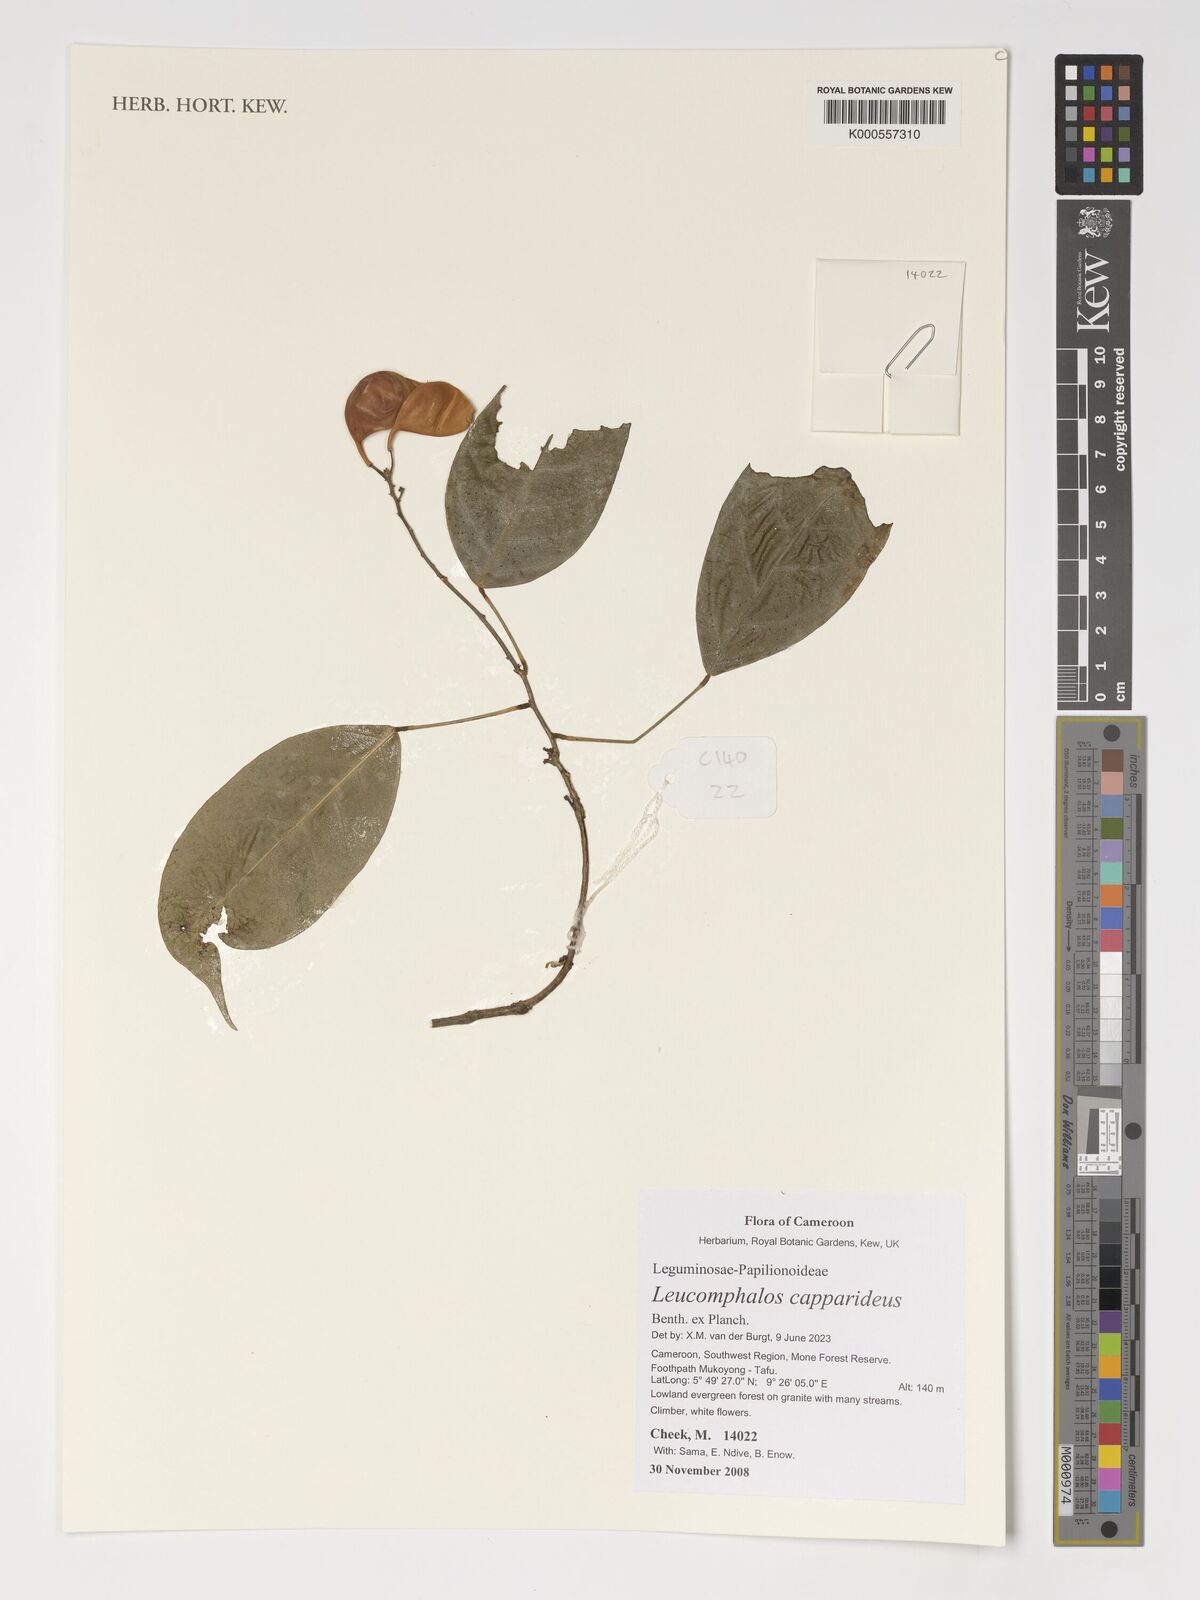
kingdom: Plantae
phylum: Tracheophyta
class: Magnoliopsida
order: Fabales
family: Fabaceae
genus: Leucomphalos
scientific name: Leucomphalos capparideus
